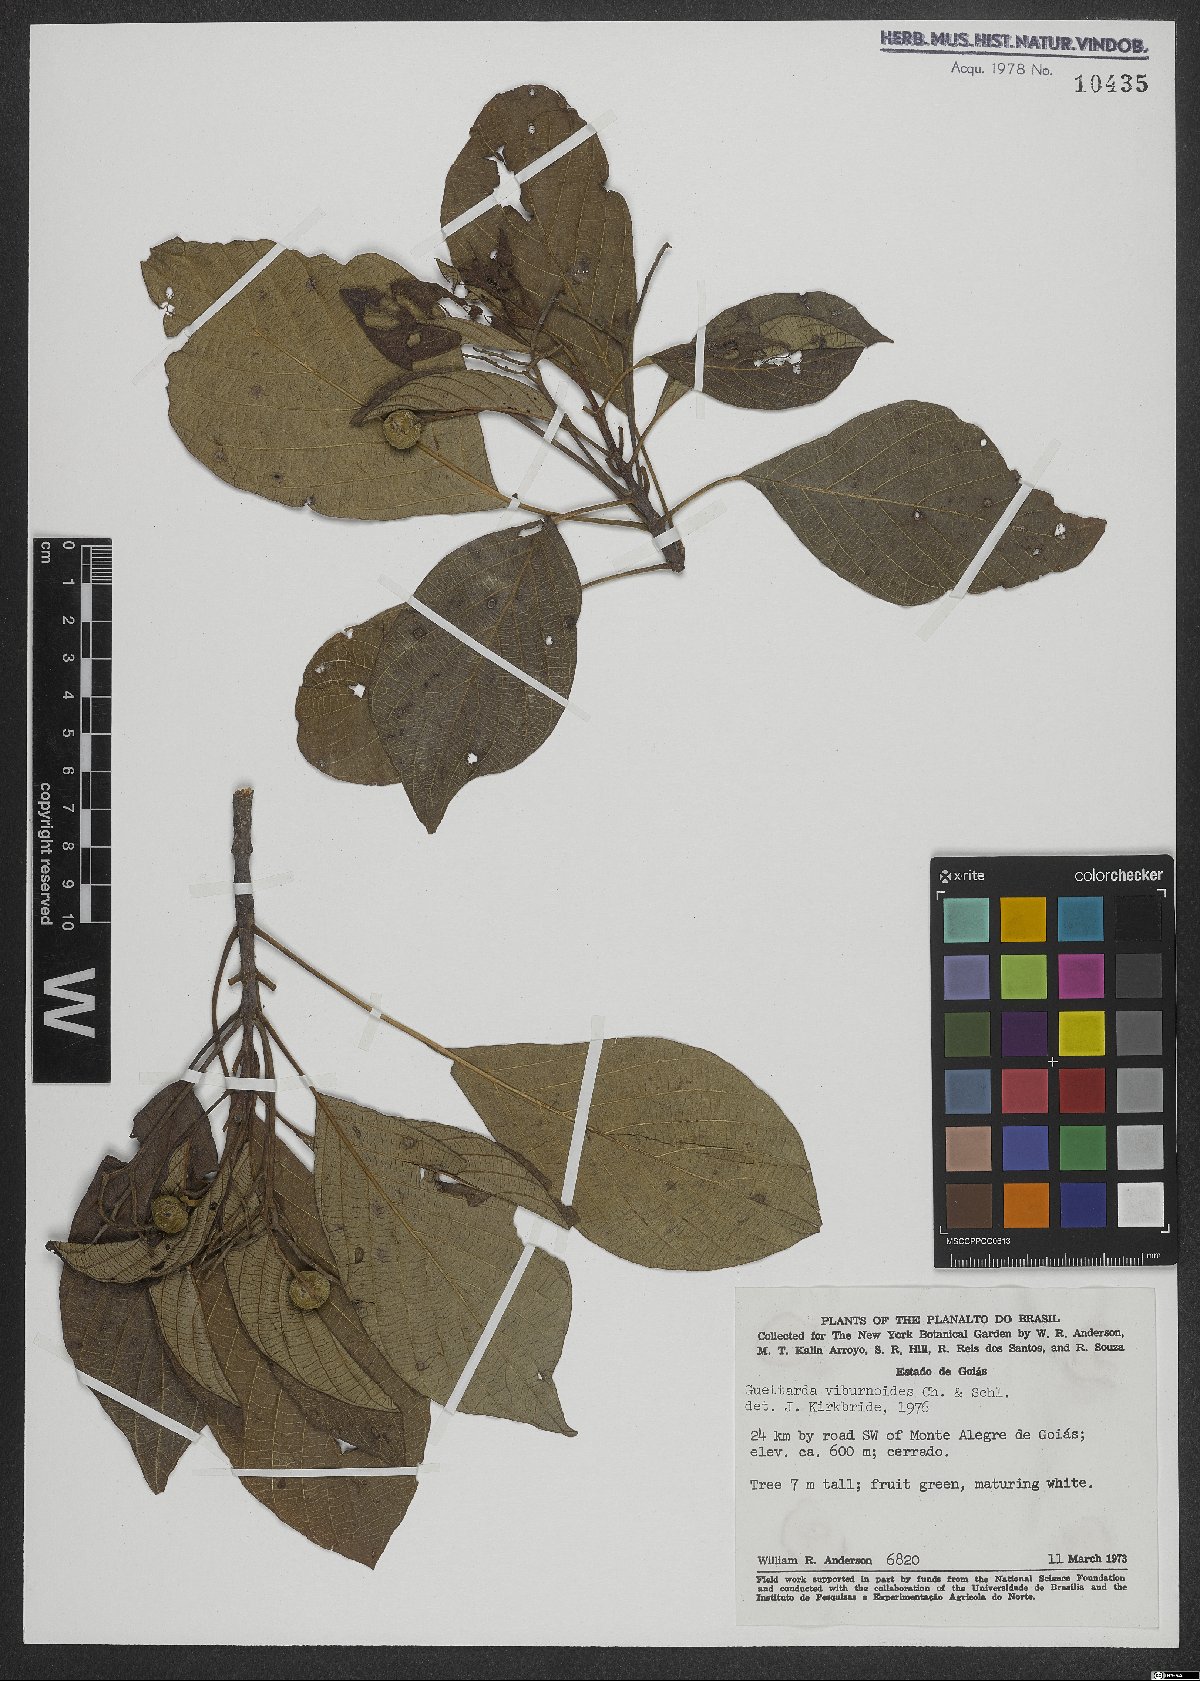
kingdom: Plantae
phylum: Tracheophyta
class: Magnoliopsida
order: Gentianales
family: Rubiaceae
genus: Guettarda
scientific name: Guettarda viburnoides
